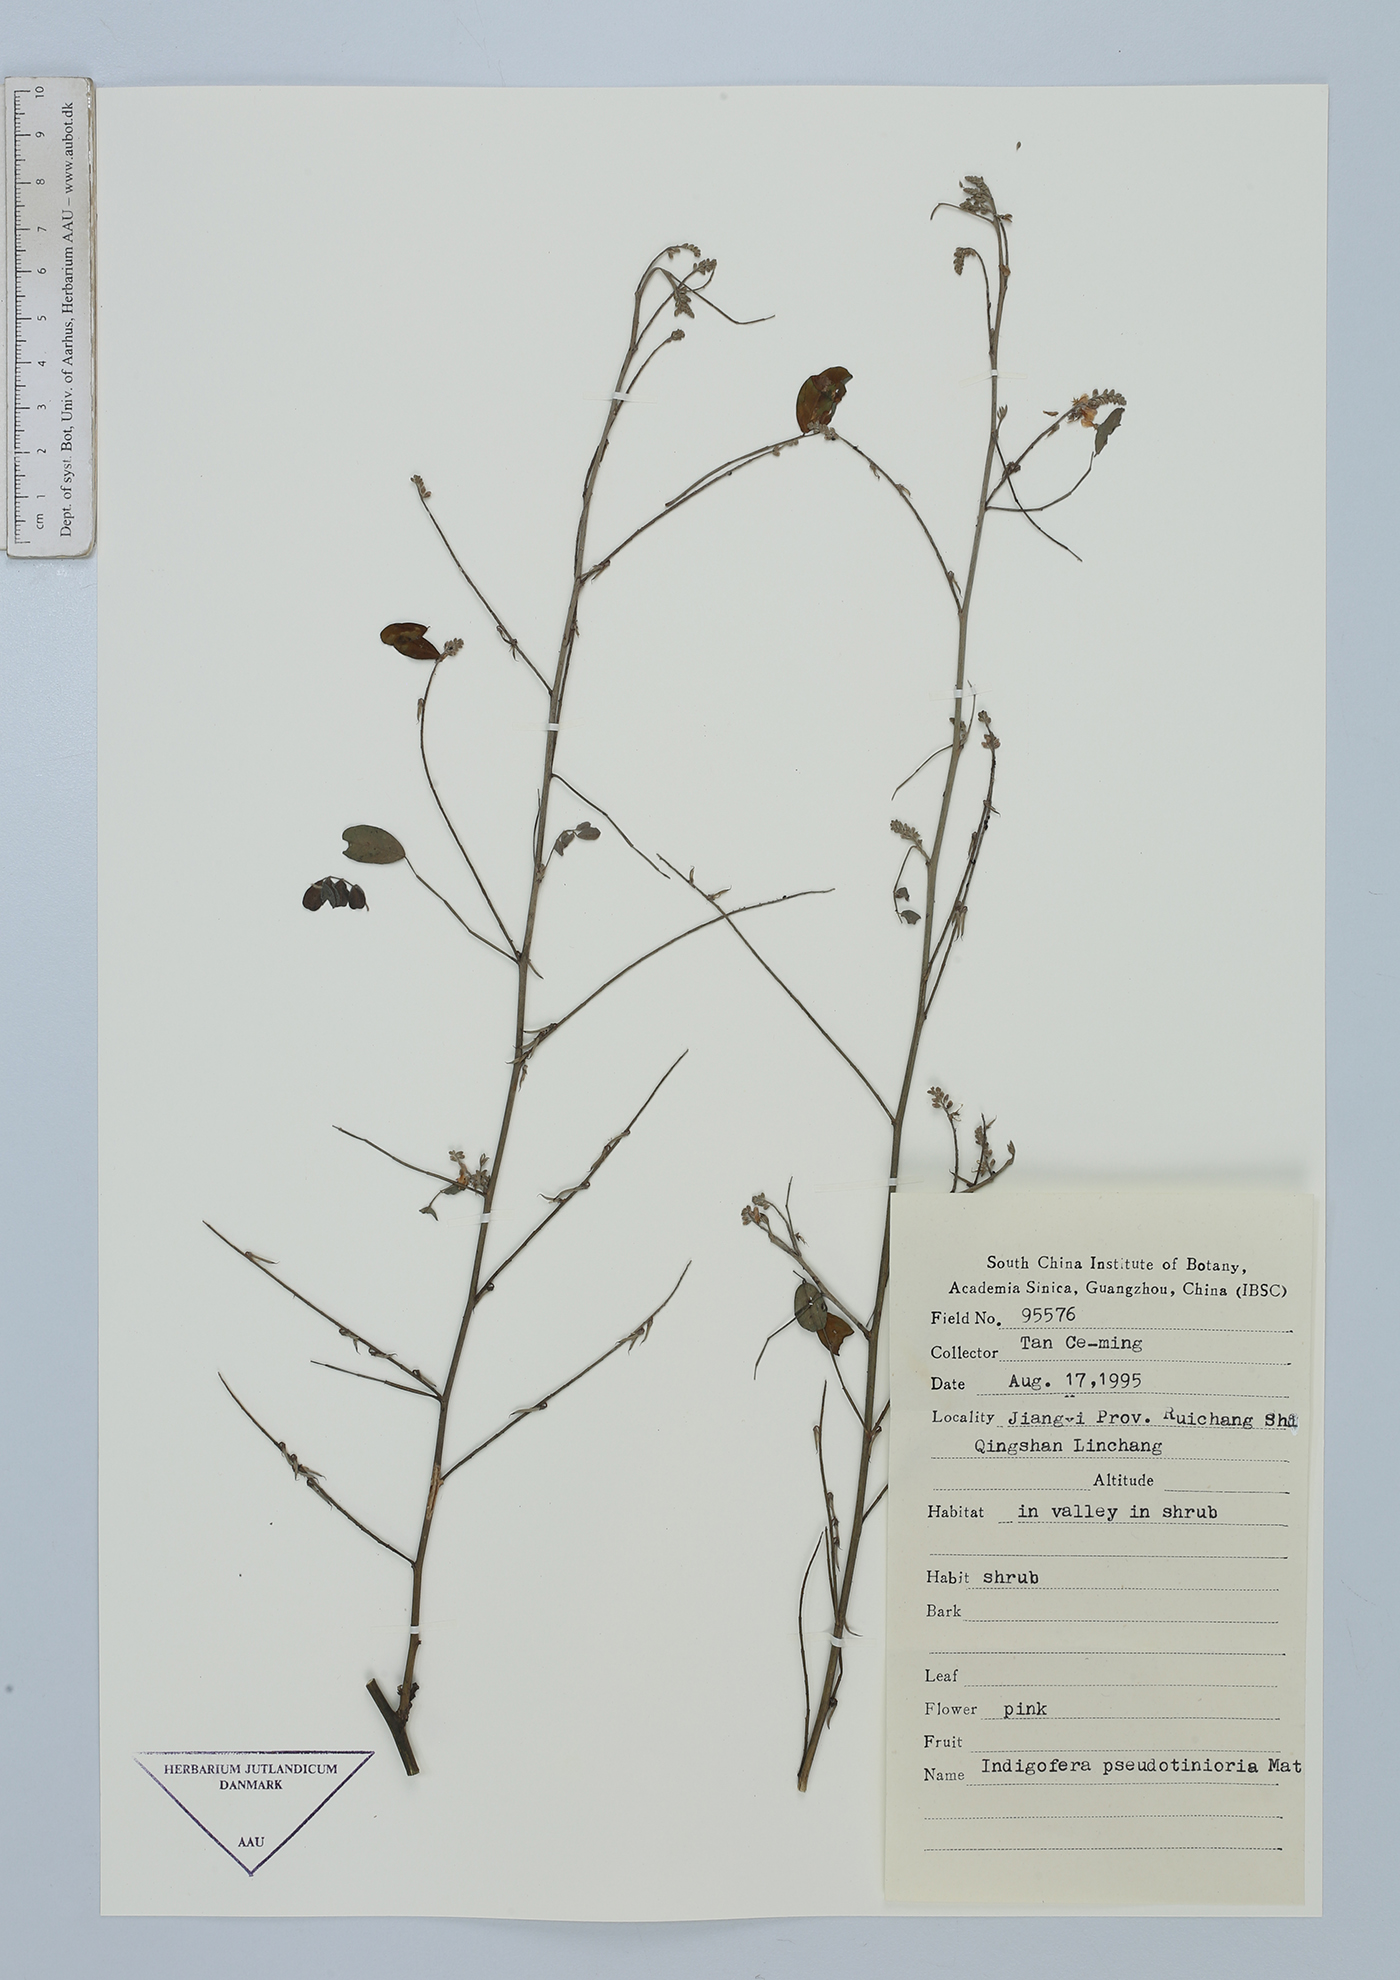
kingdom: Plantae
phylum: Tracheophyta
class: Magnoliopsida
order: Fabales
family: Fabaceae
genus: Indigofera
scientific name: Indigofera bungeana
